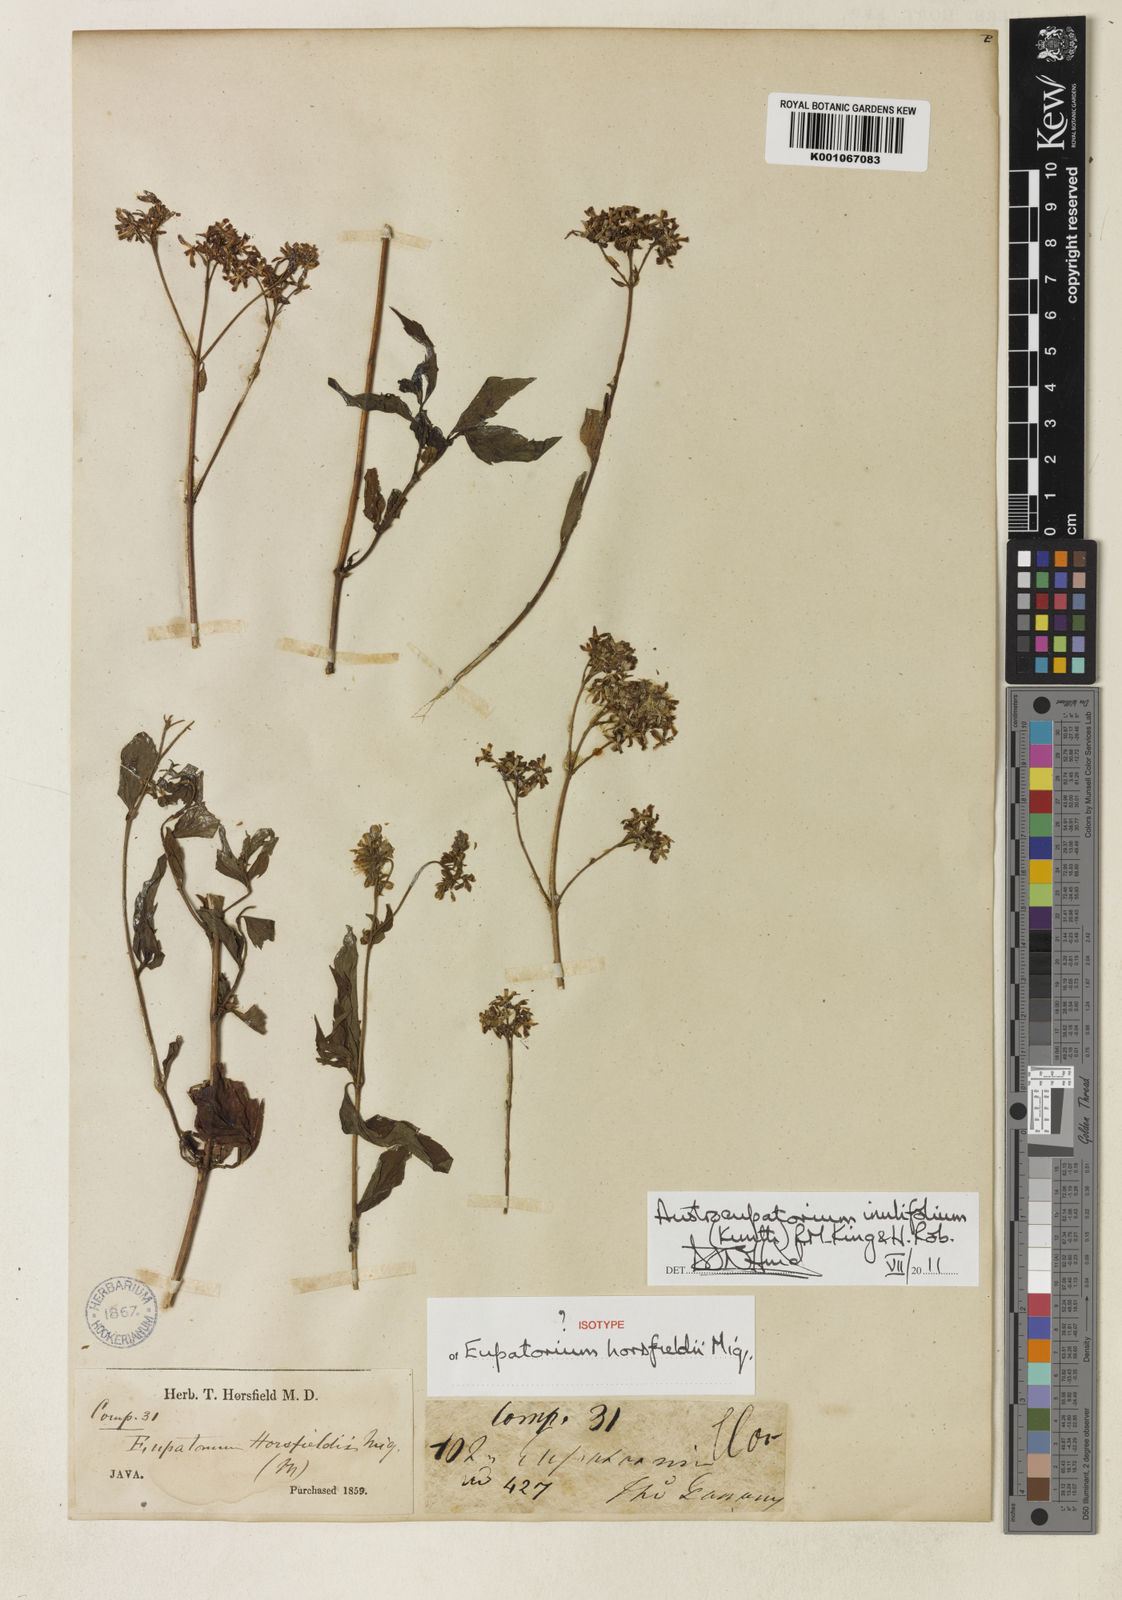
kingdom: Plantae
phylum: Tracheophyta
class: Magnoliopsida
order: Asterales
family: Asteraceae
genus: Austroeupatorium
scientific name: Austroeupatorium inulifolium
